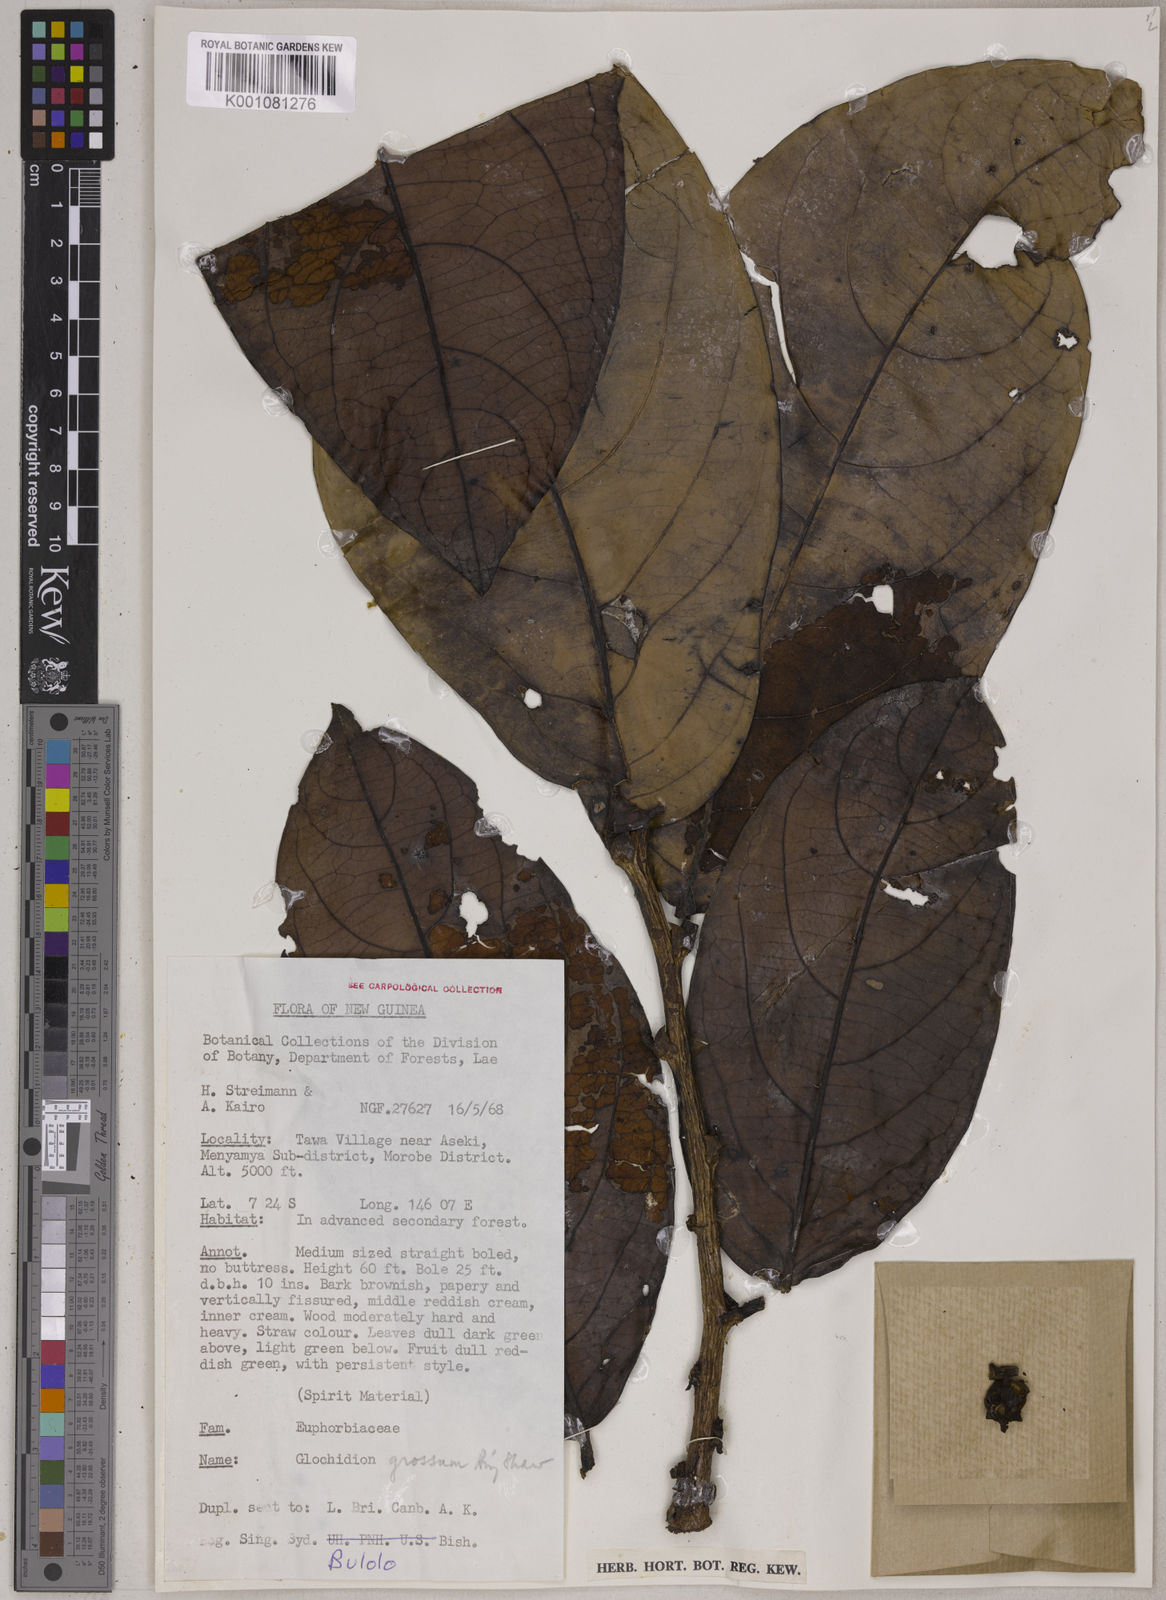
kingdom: Plantae
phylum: Tracheophyta
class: Magnoliopsida
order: Malpighiales
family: Phyllanthaceae
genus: Glochidion
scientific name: Glochidion grossum
